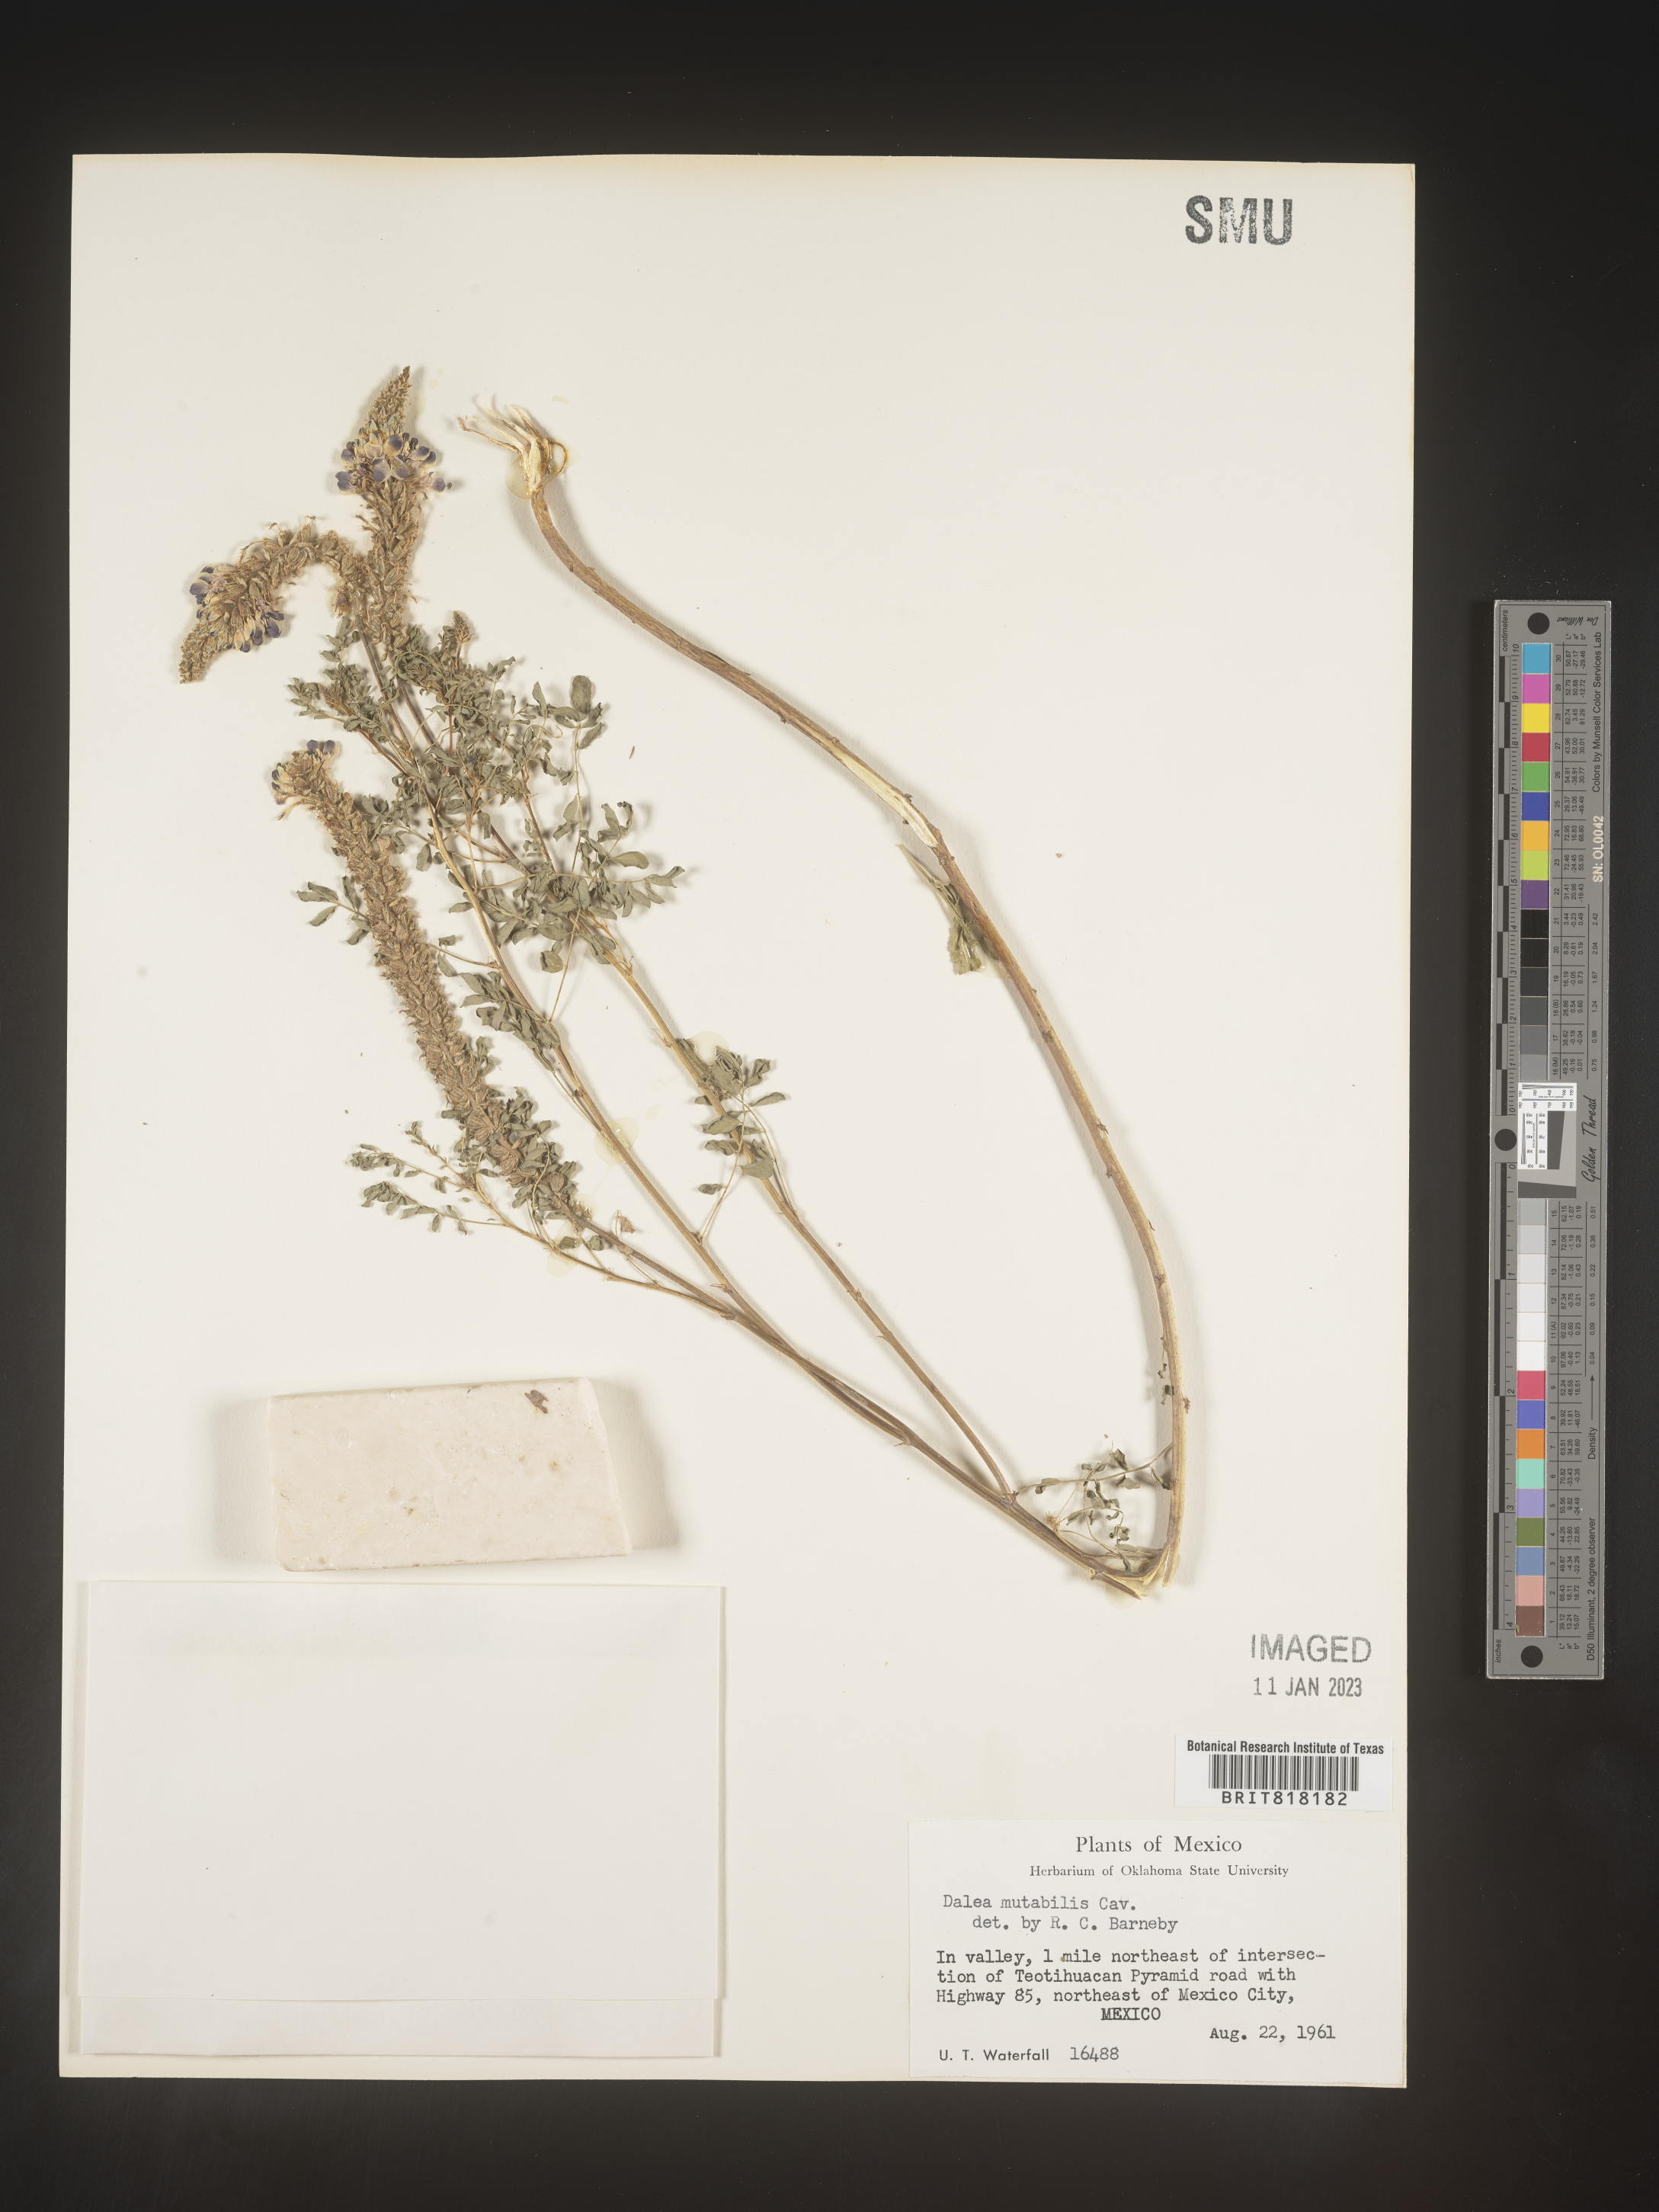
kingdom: Plantae
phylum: Tracheophyta
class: Magnoliopsida
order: Fabales
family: Fabaceae
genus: Dalea
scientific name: Dalea
